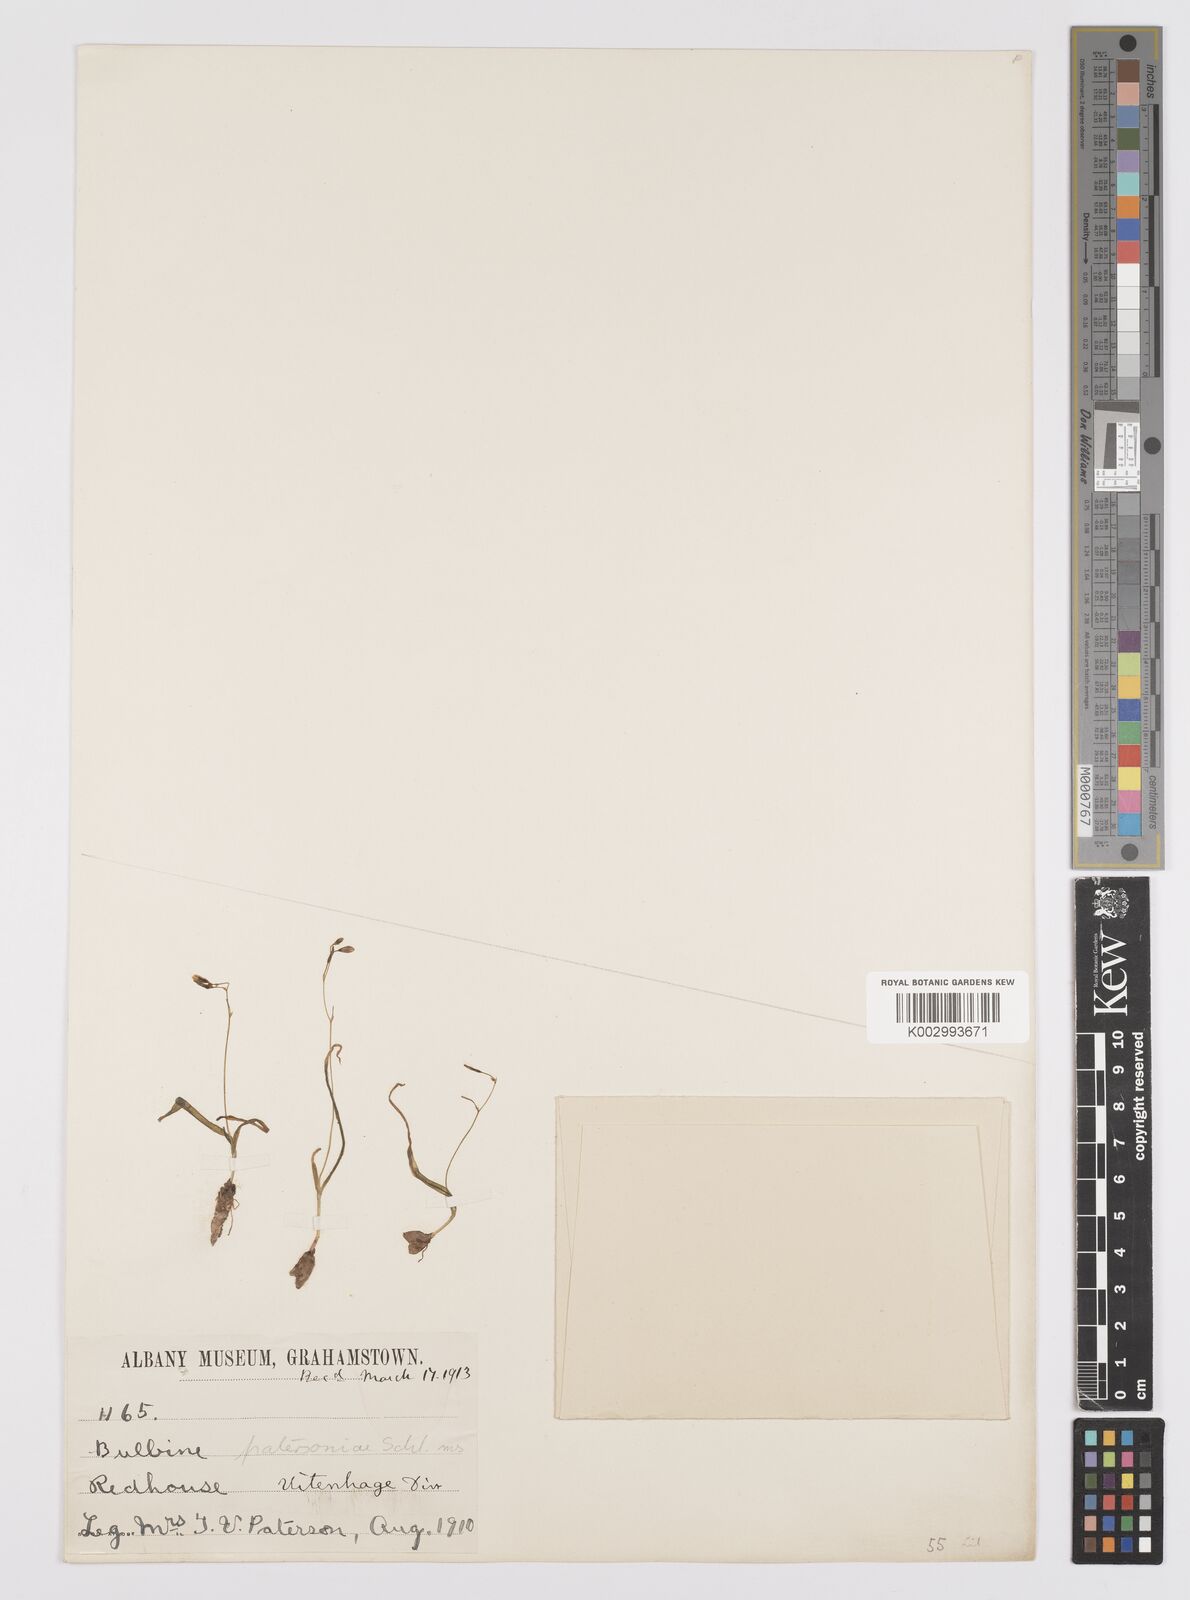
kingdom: Plantae
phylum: Tracheophyta
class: Liliopsida
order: Asparagales
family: Asphodelaceae
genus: Bulbine
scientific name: Bulbine longifolia
